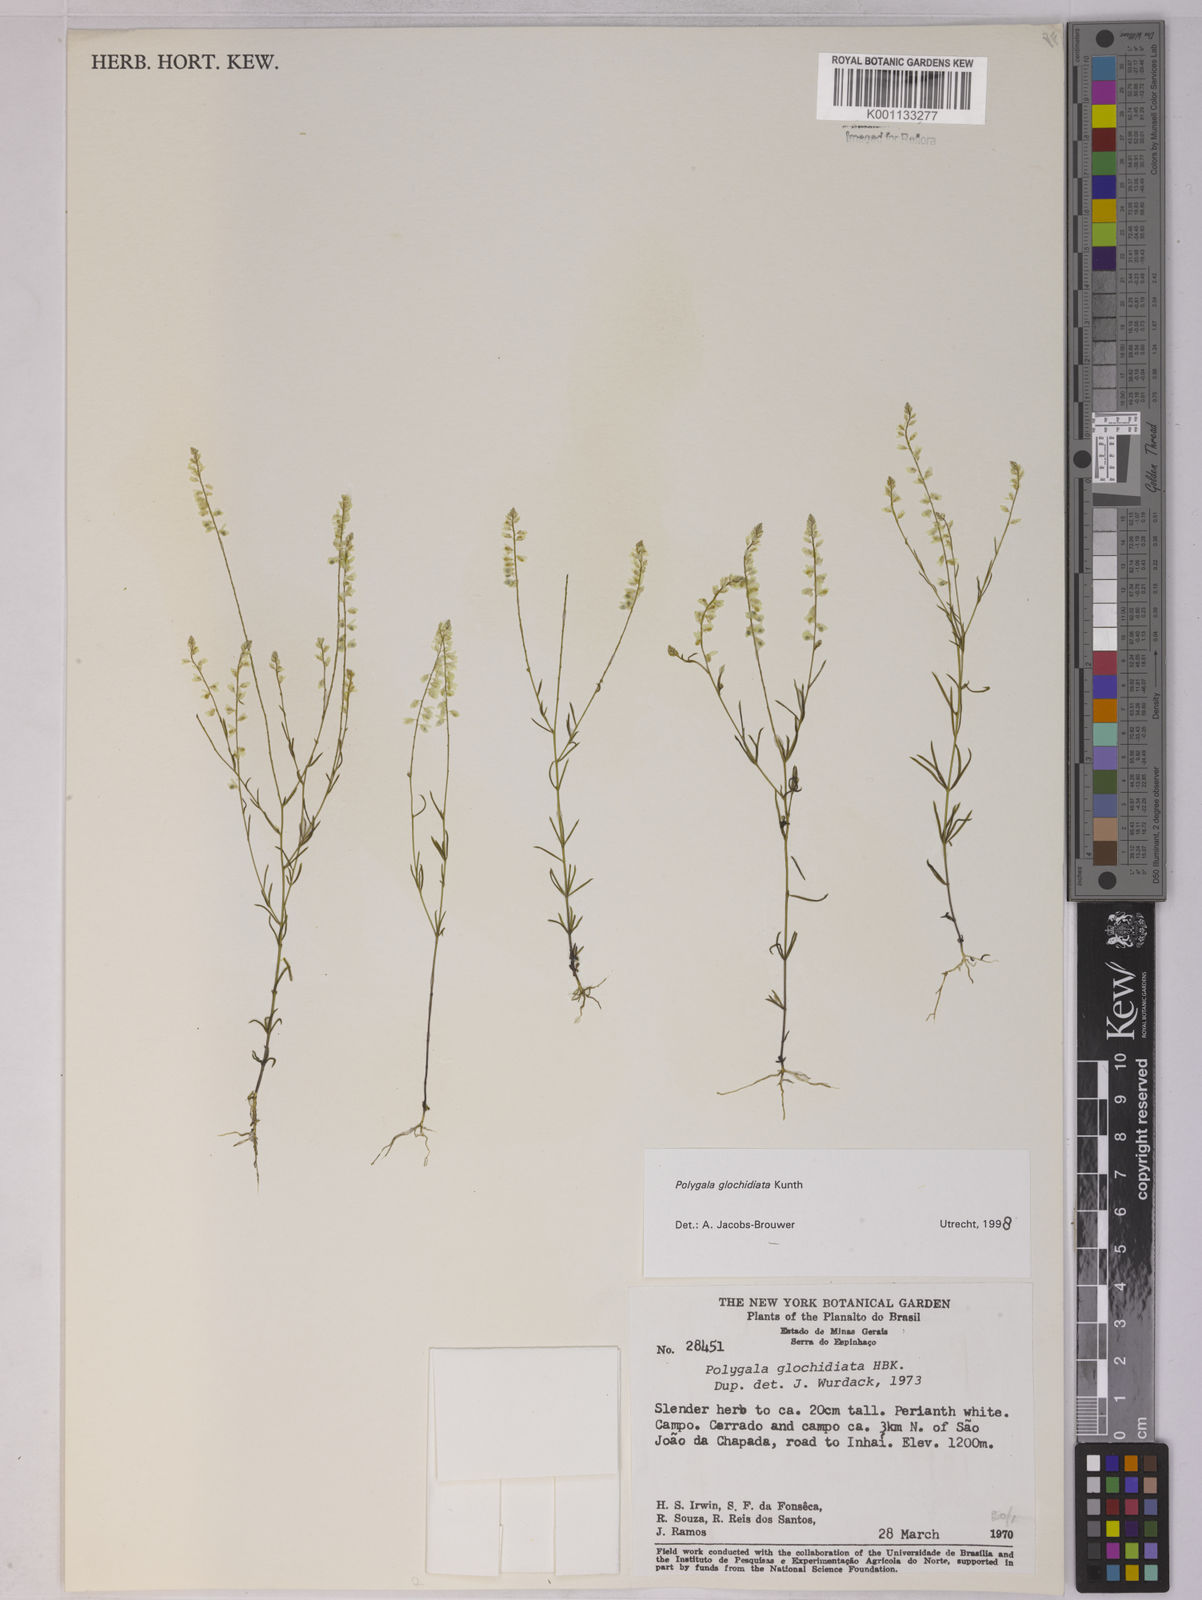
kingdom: Plantae
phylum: Tracheophyta
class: Magnoliopsida
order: Fabales
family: Polygalaceae
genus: Polygala
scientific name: Polygala glochidiata
